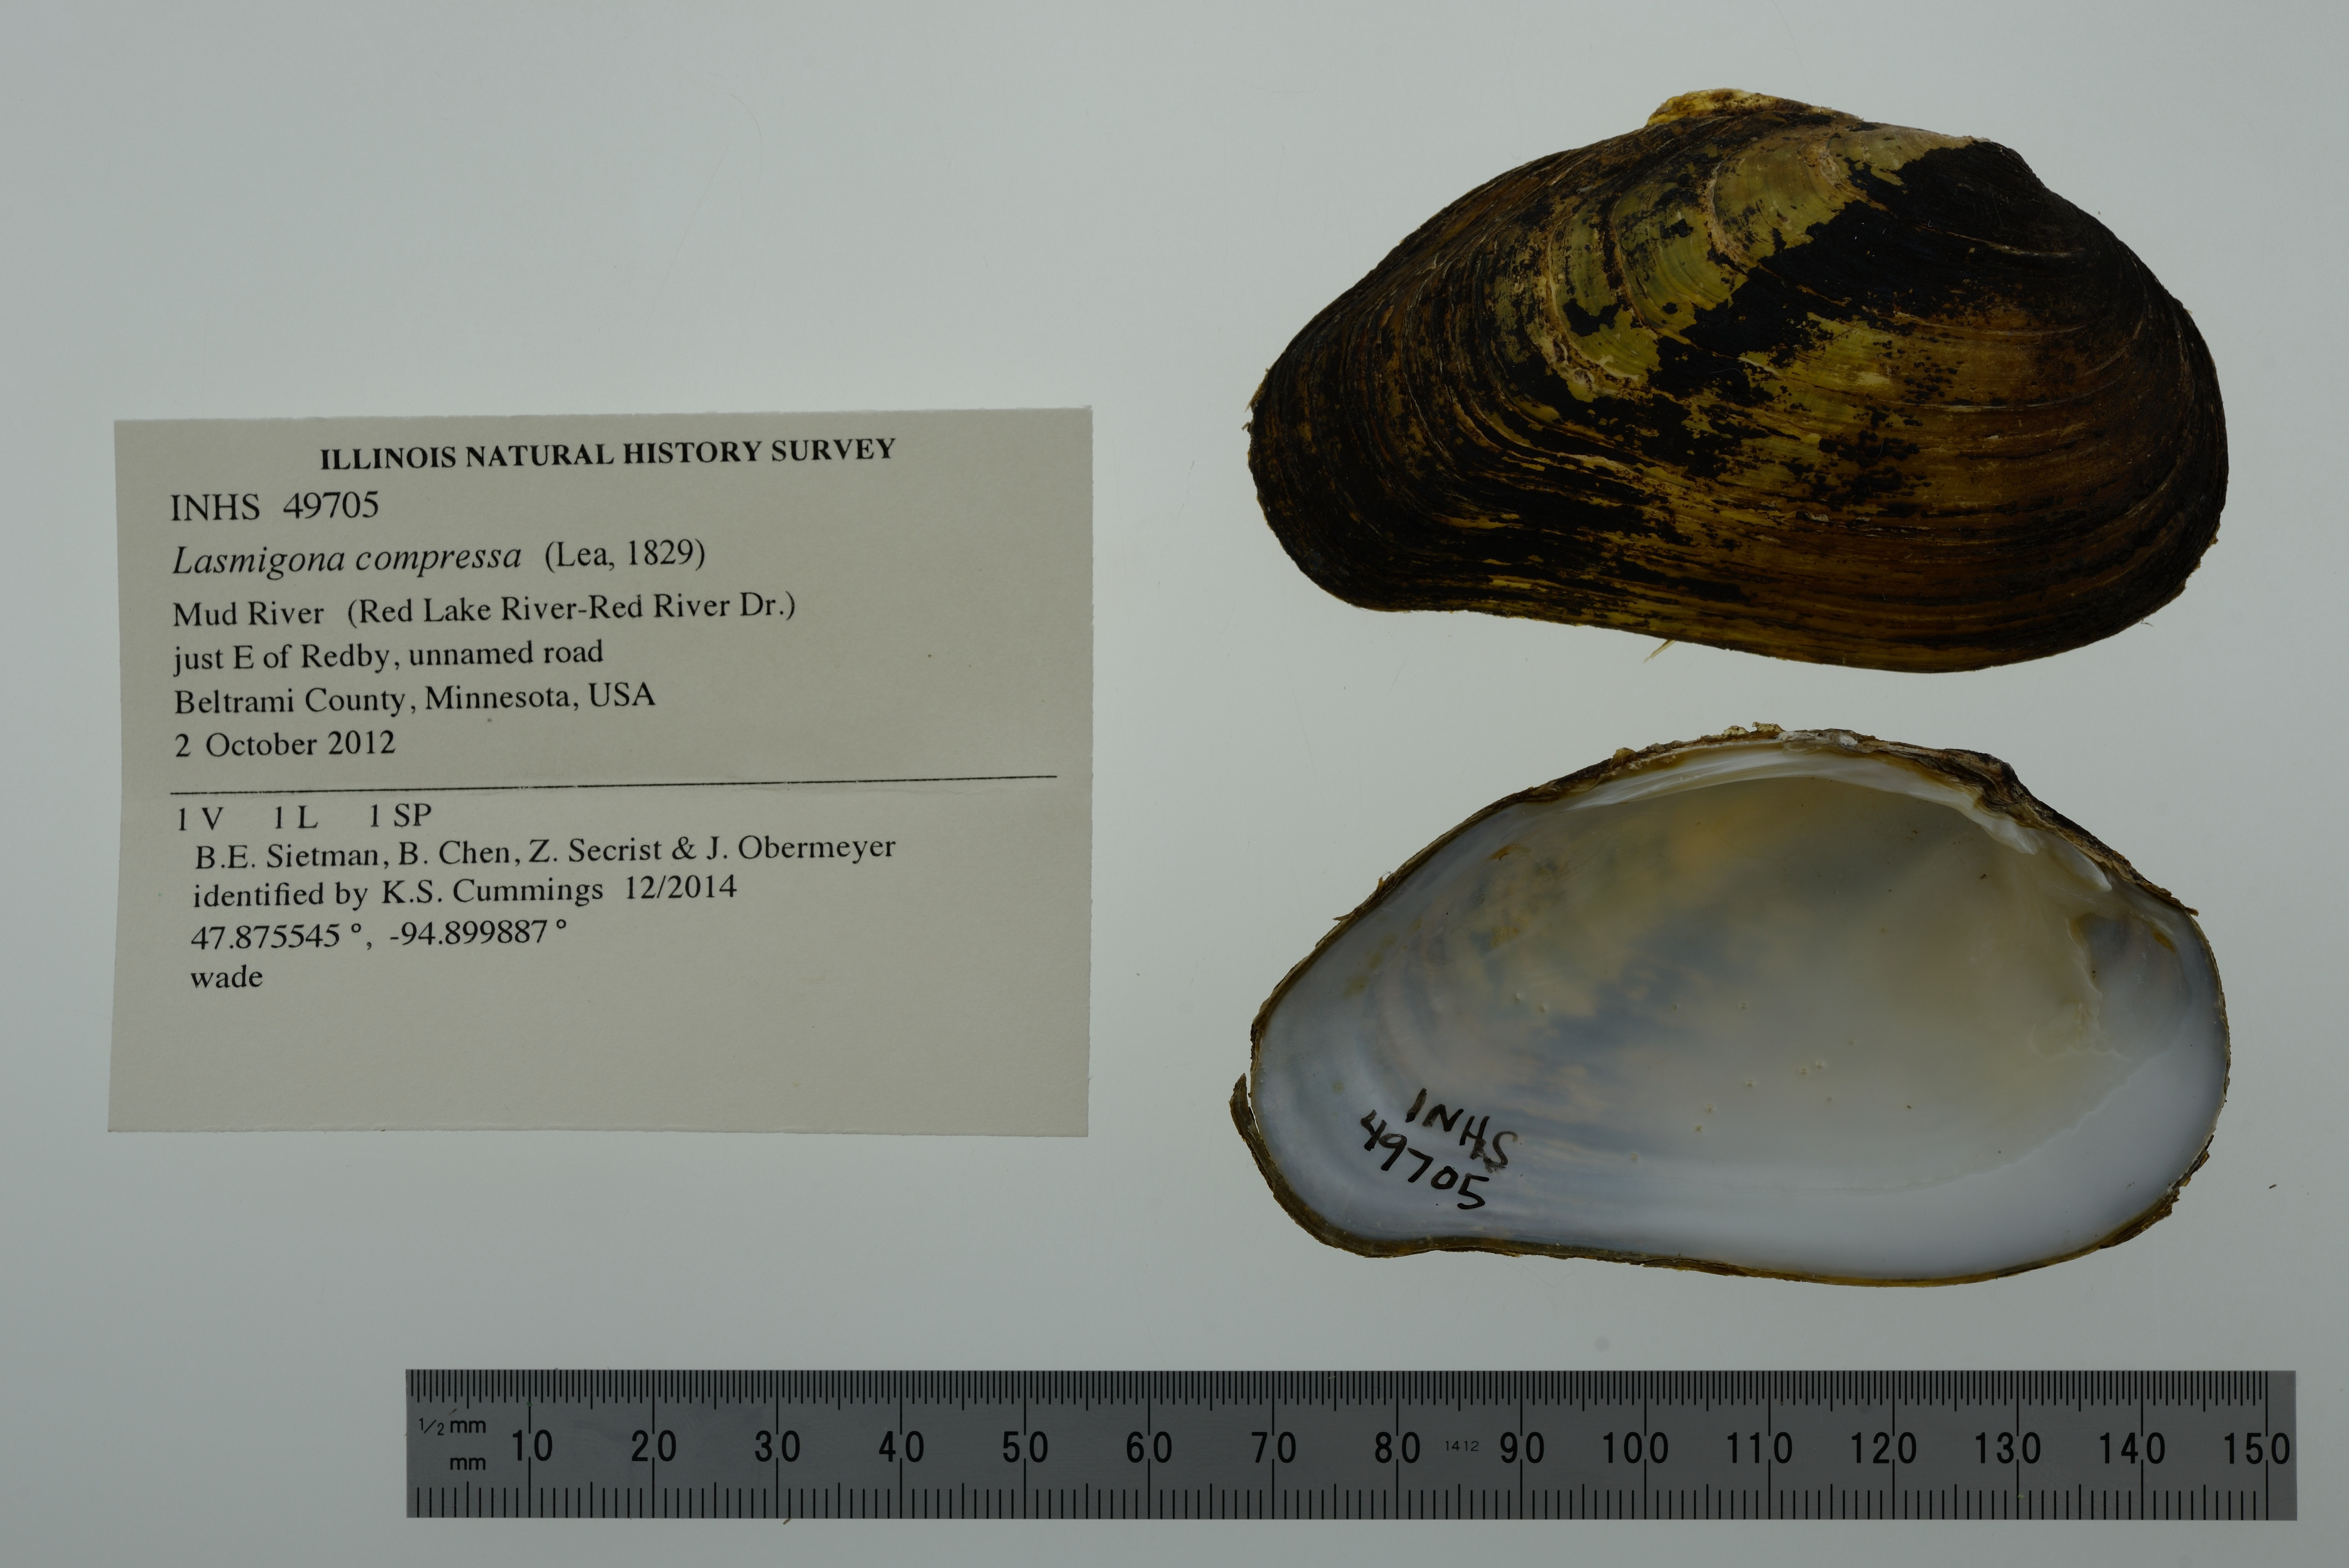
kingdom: Animalia
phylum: Mollusca
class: Bivalvia
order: Unionida
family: Unionidae
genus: Lasmigona
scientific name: Lasmigona compressa
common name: Creek heelsplitter
